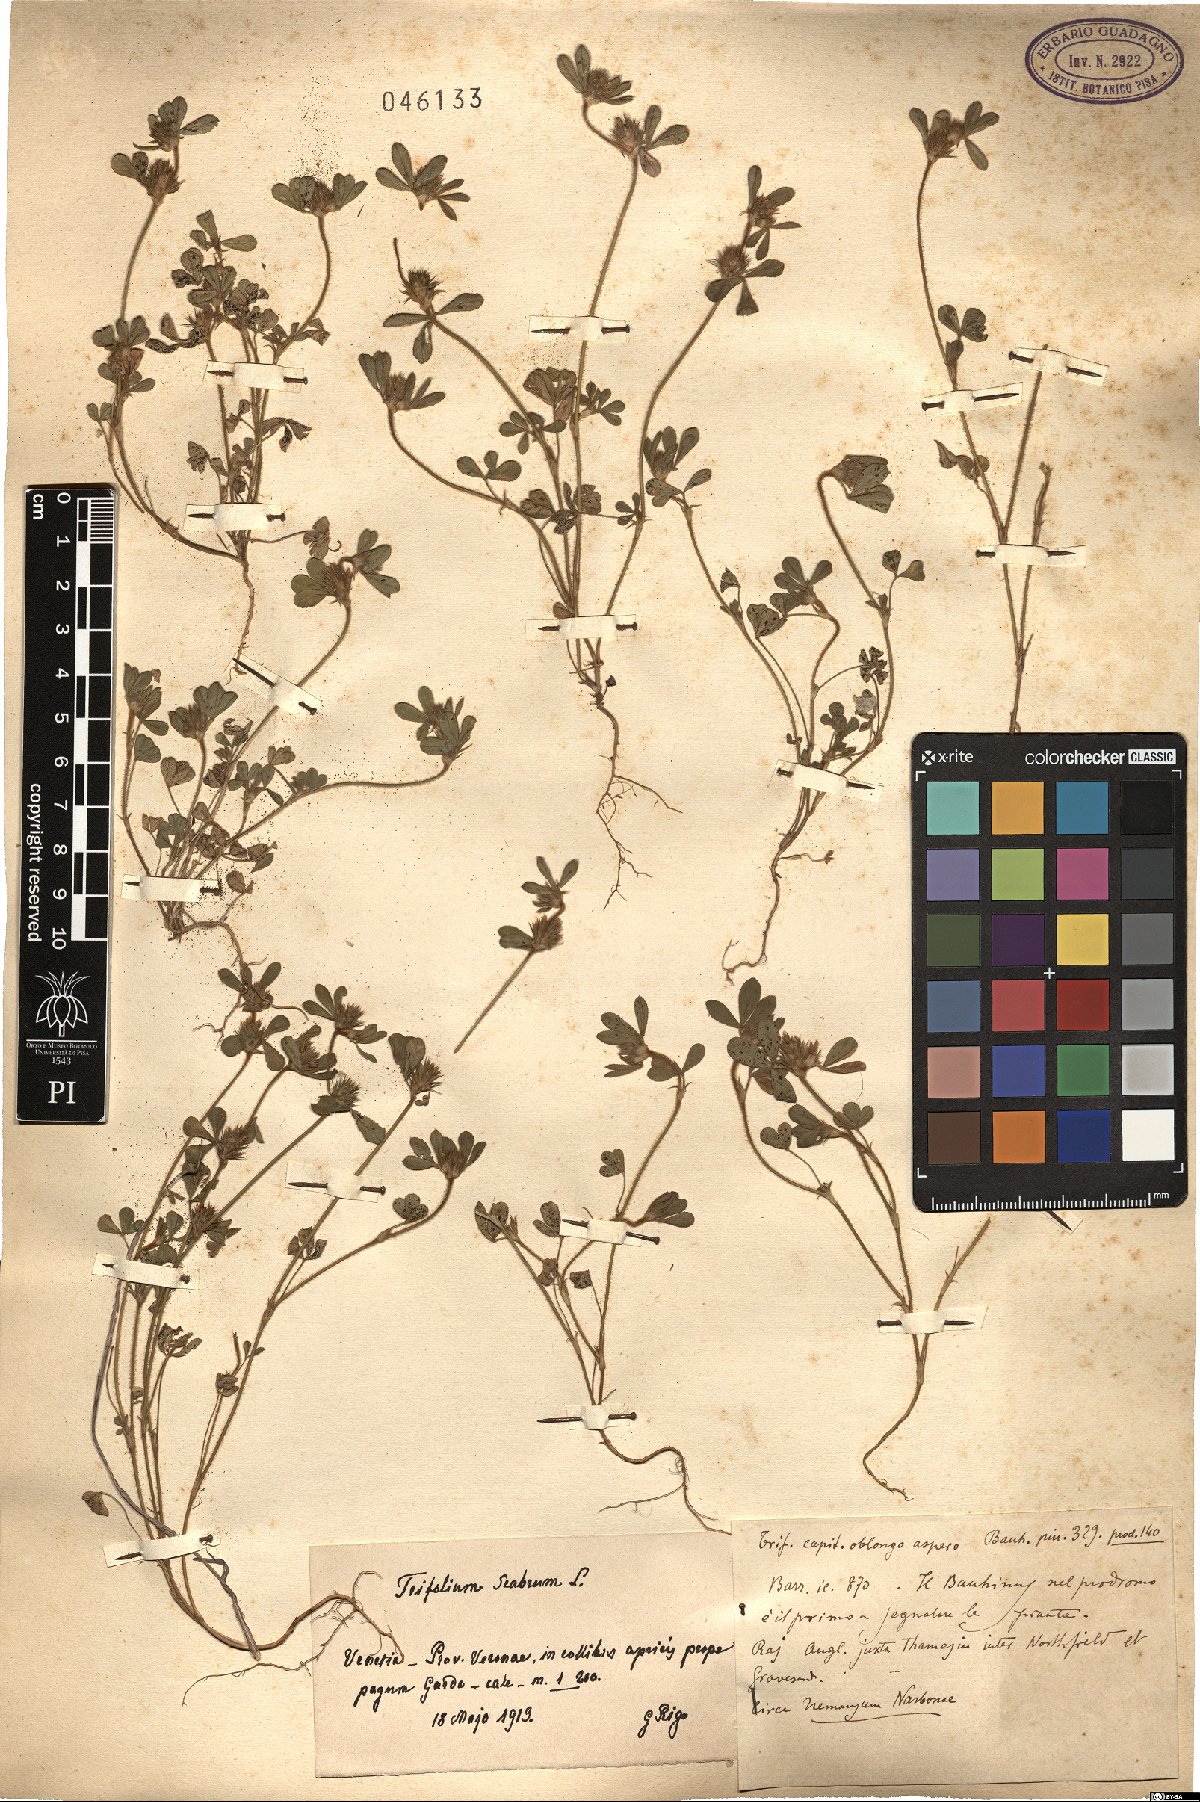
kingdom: Plantae
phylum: Tracheophyta
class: Magnoliopsida
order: Fabales
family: Fabaceae
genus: Trifolium
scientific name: Trifolium scabrum
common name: Rough clover
